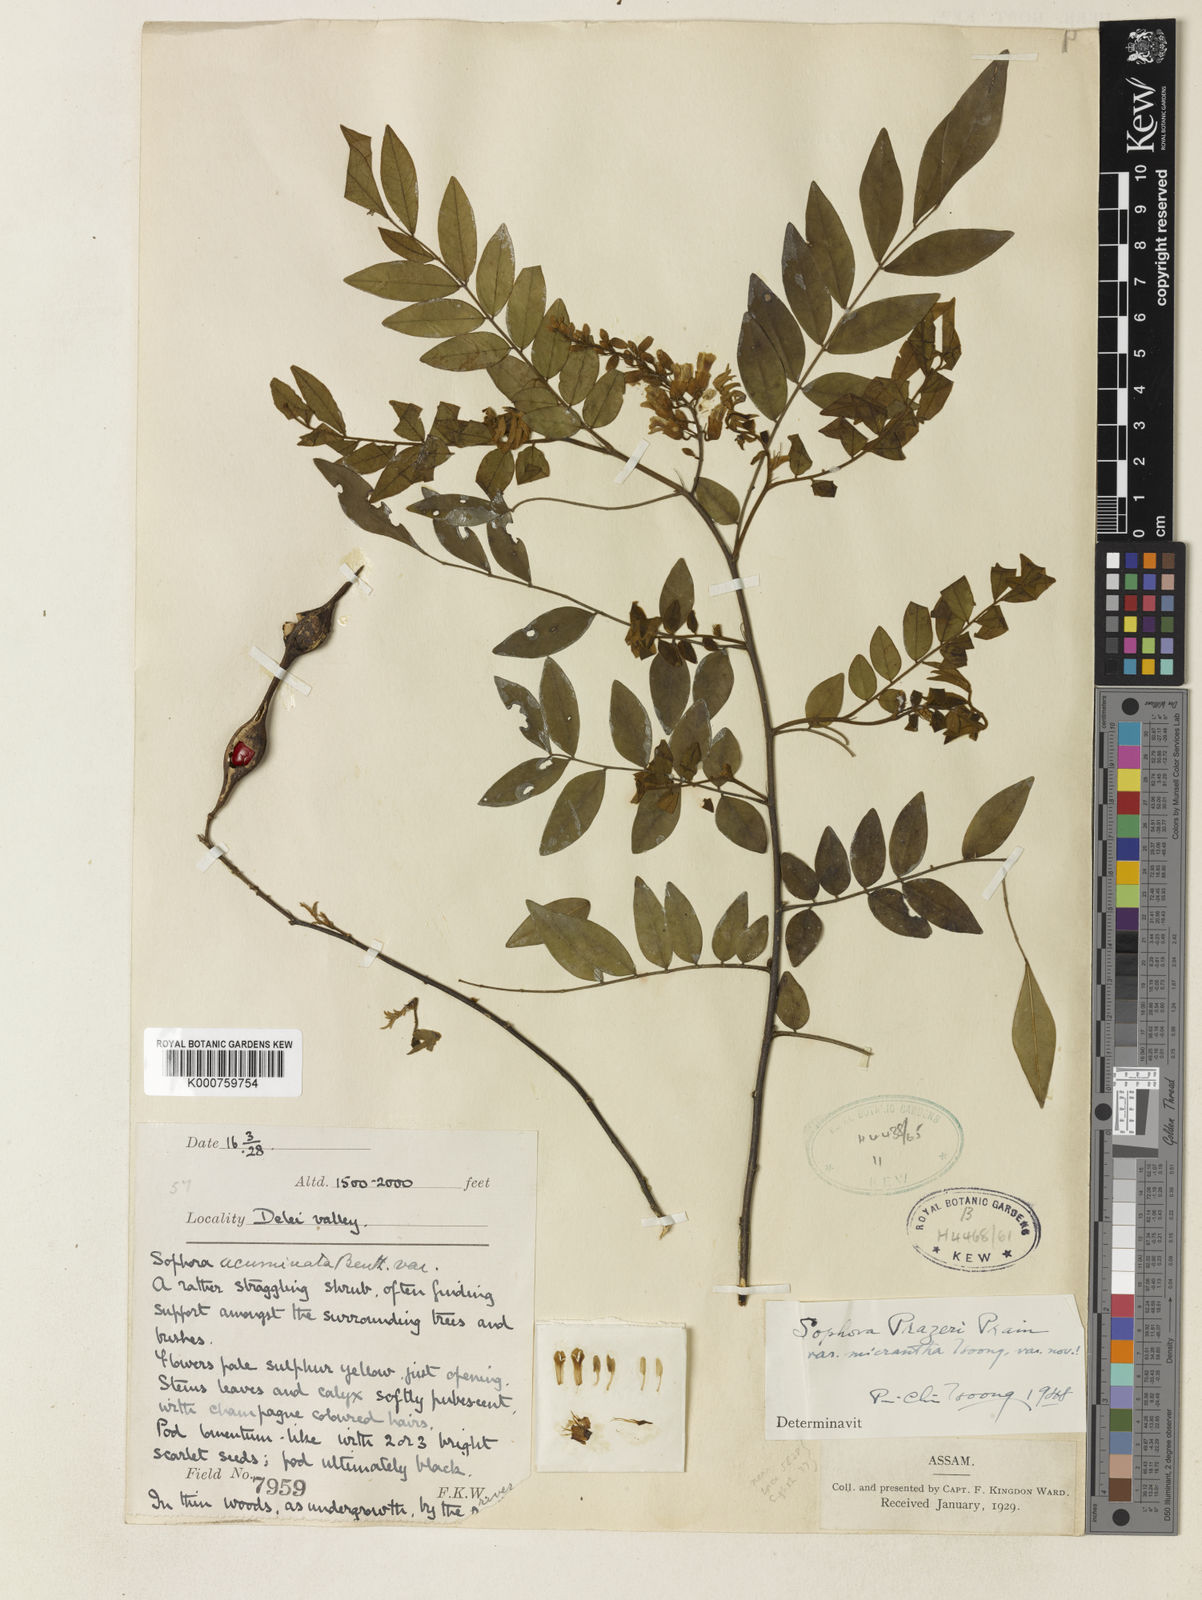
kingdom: Plantae
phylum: Tracheophyta
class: Magnoliopsida
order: Fabales
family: Fabaceae
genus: Sophora
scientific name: Sophora wightii
